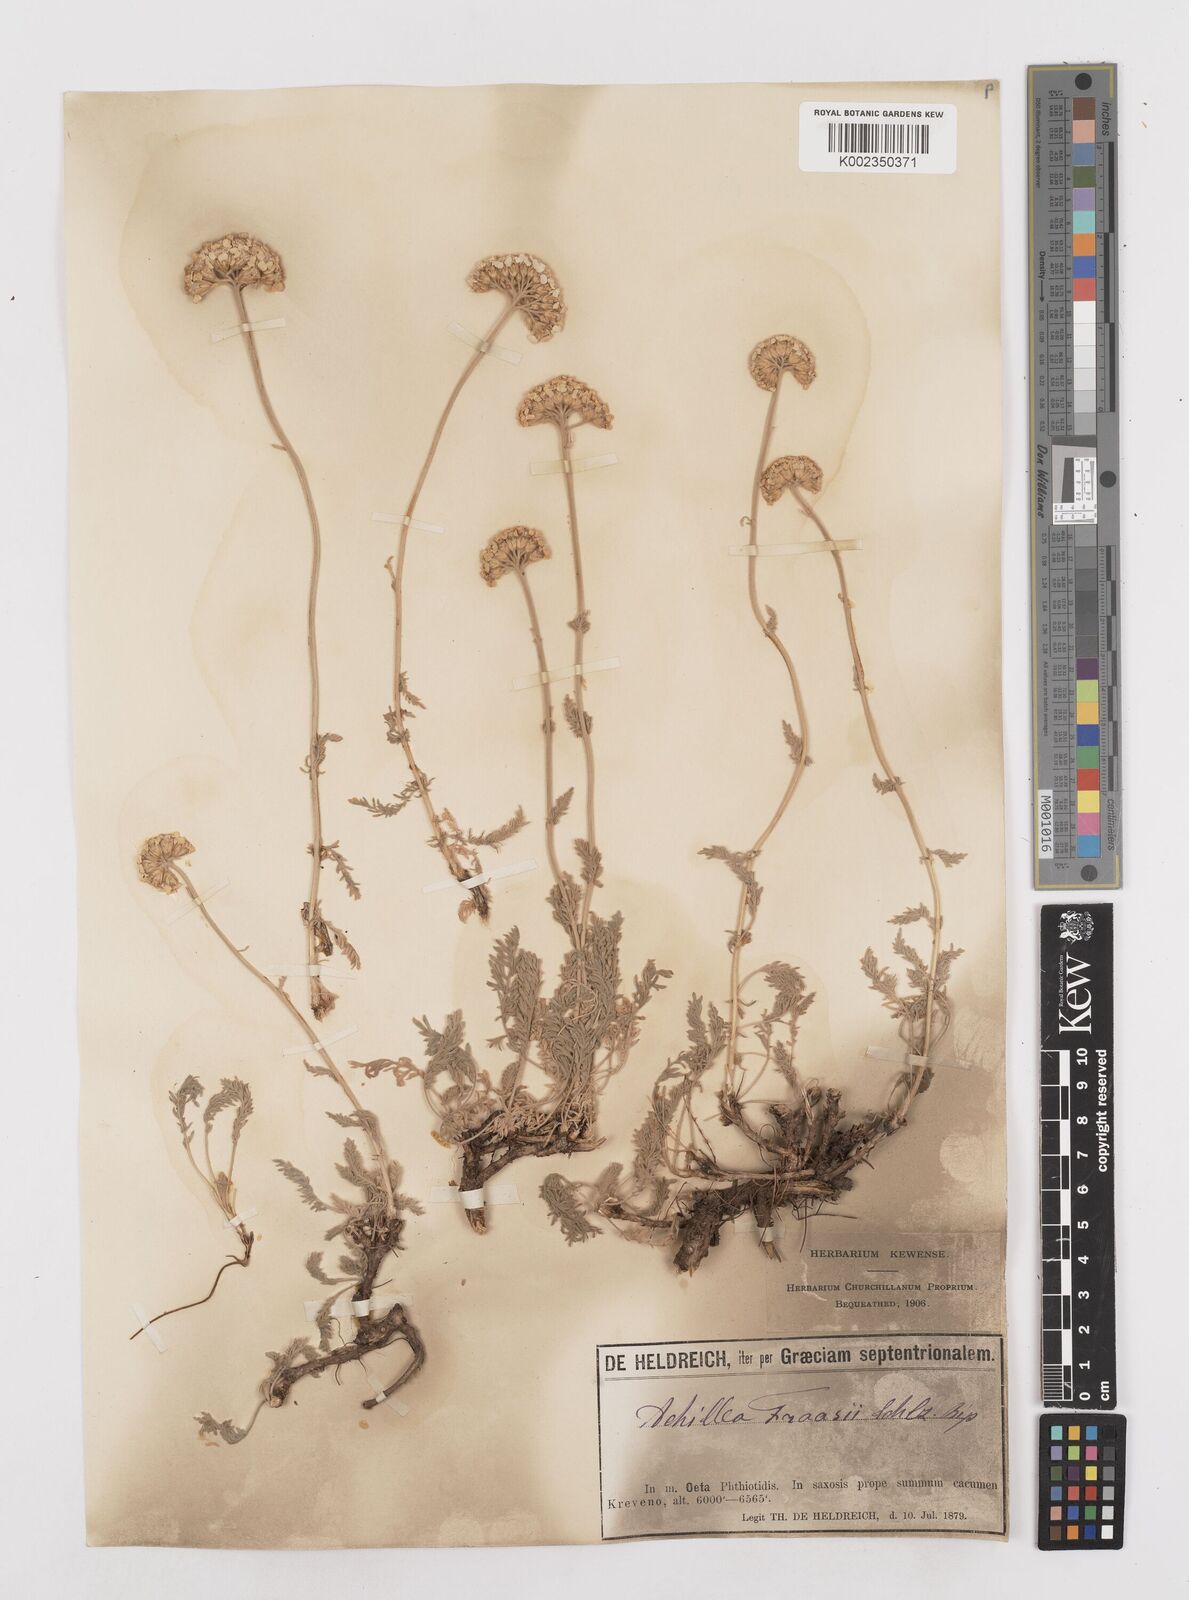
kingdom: Plantae
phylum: Tracheophyta
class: Magnoliopsida
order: Asterales
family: Asteraceae
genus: Achillea
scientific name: Achillea fraasii
